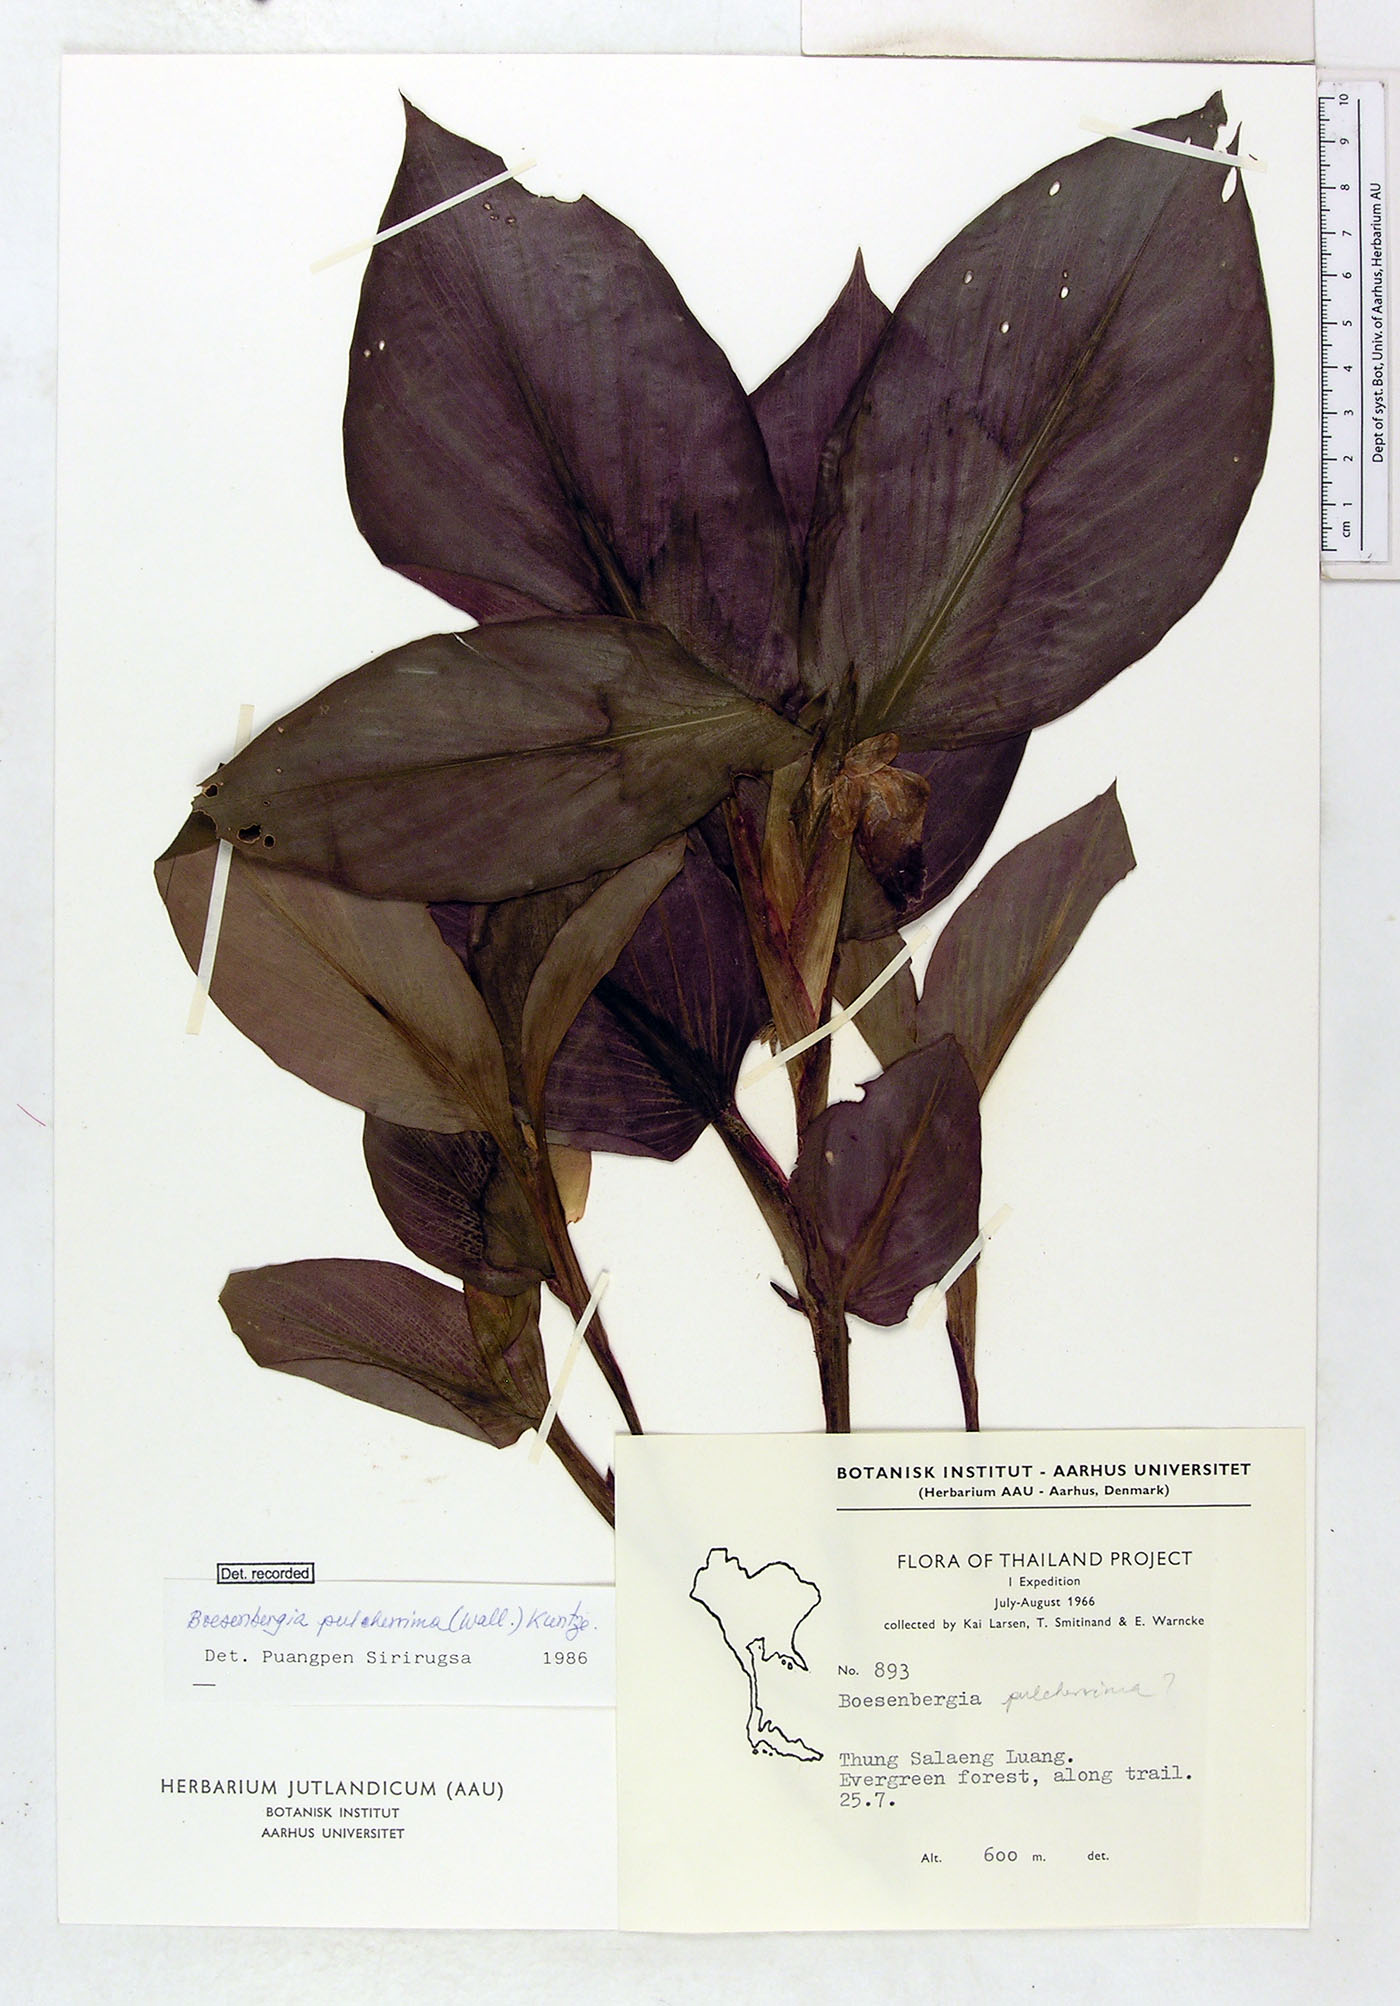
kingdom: Plantae
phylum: Tracheophyta
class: Liliopsida
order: Zingiberales
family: Zingiberaceae
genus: Boesenbergia
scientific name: Boesenbergia pulcherrima
